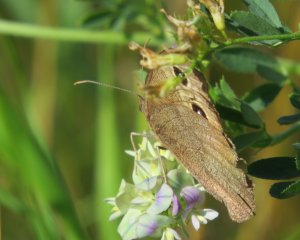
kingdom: Animalia
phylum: Arthropoda
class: Insecta
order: Lepidoptera
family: Nymphalidae
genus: Cercyonis
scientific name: Cercyonis pegala
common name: Common Wood-Nymph
